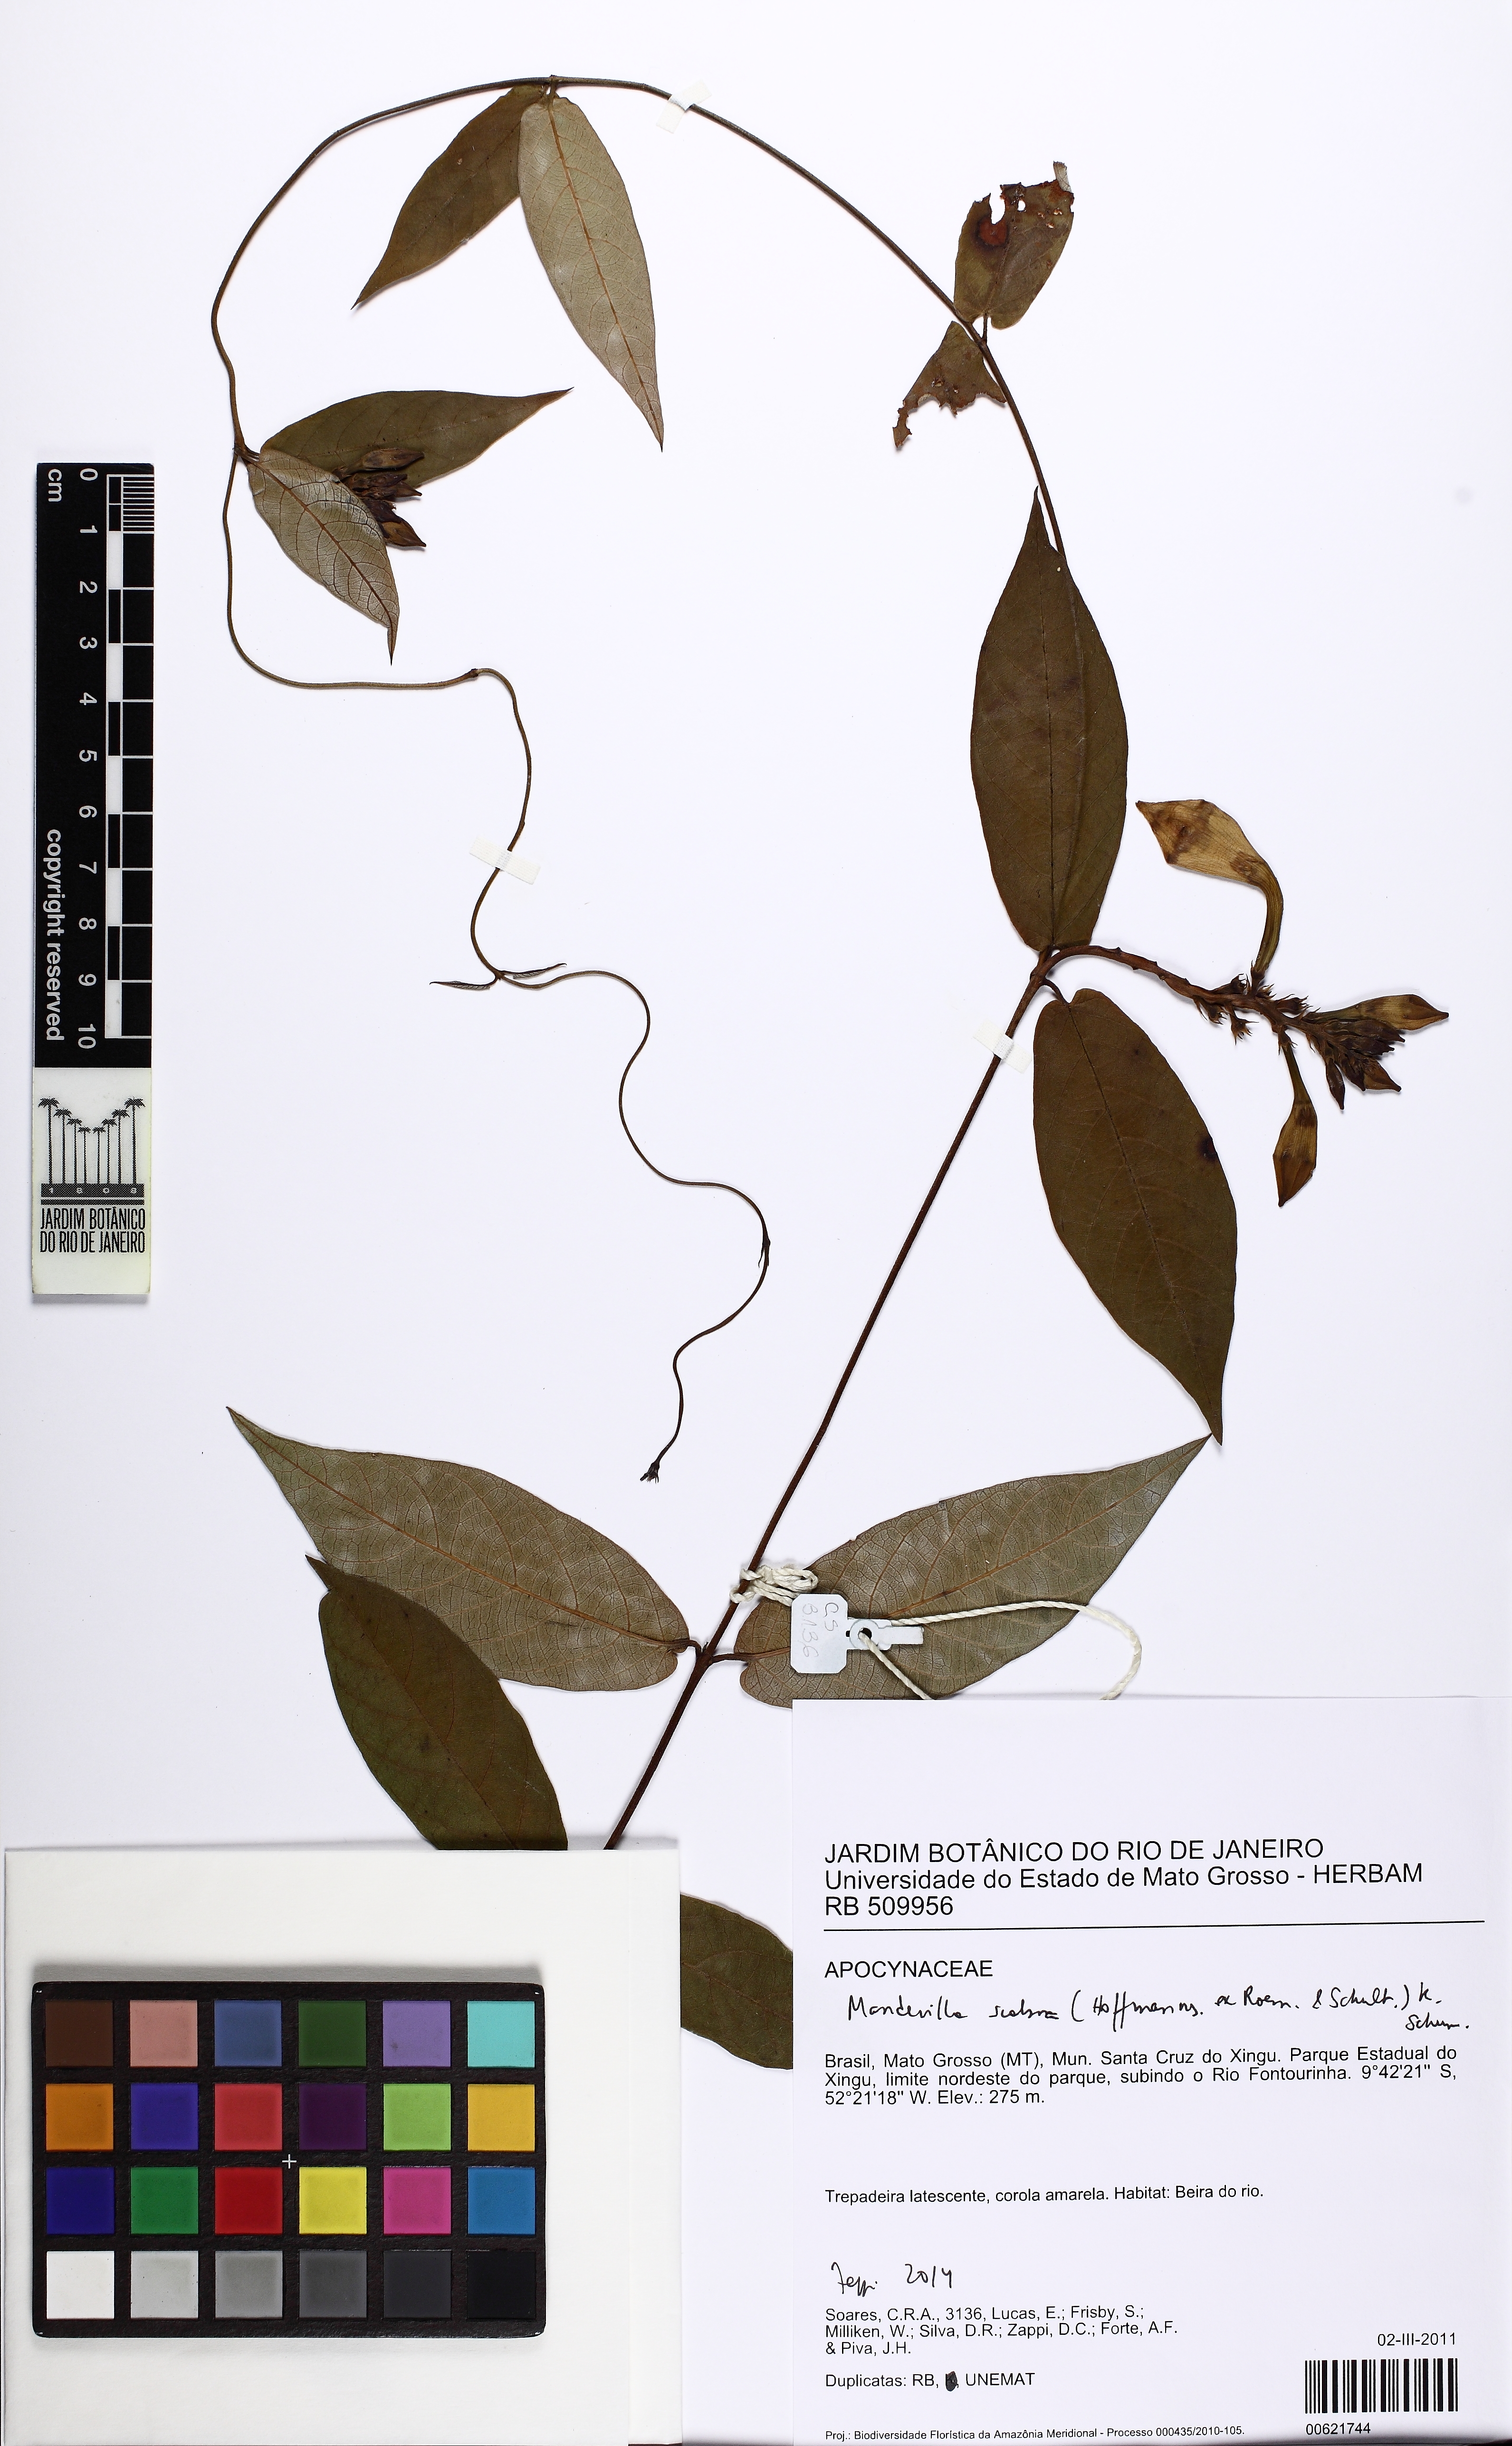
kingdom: Plantae
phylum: Tracheophyta
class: Magnoliopsida
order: Gentianales
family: Apocynaceae
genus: Mandevilla
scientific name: Mandevilla scabra
